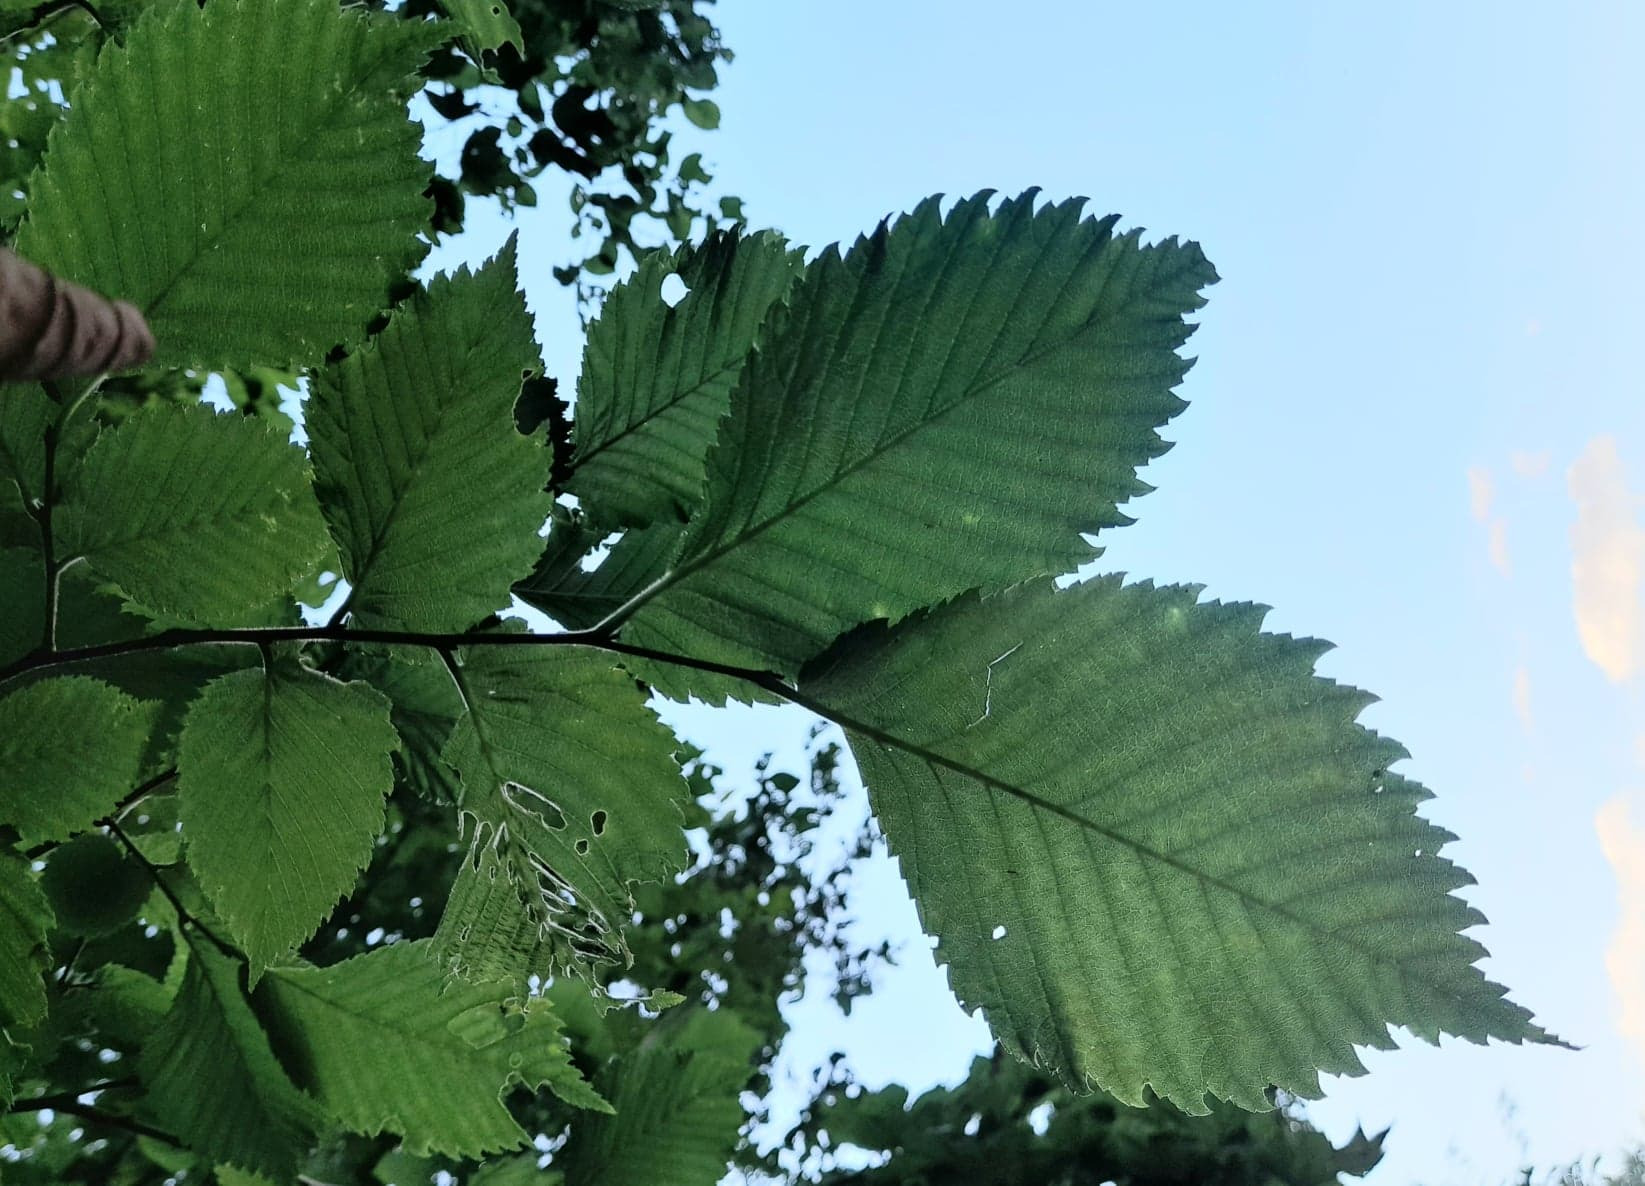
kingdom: Plantae
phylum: Tracheophyta
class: Magnoliopsida
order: Rosales
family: Ulmaceae
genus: Ulmus
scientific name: Ulmus laevis
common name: Skærm-elm
